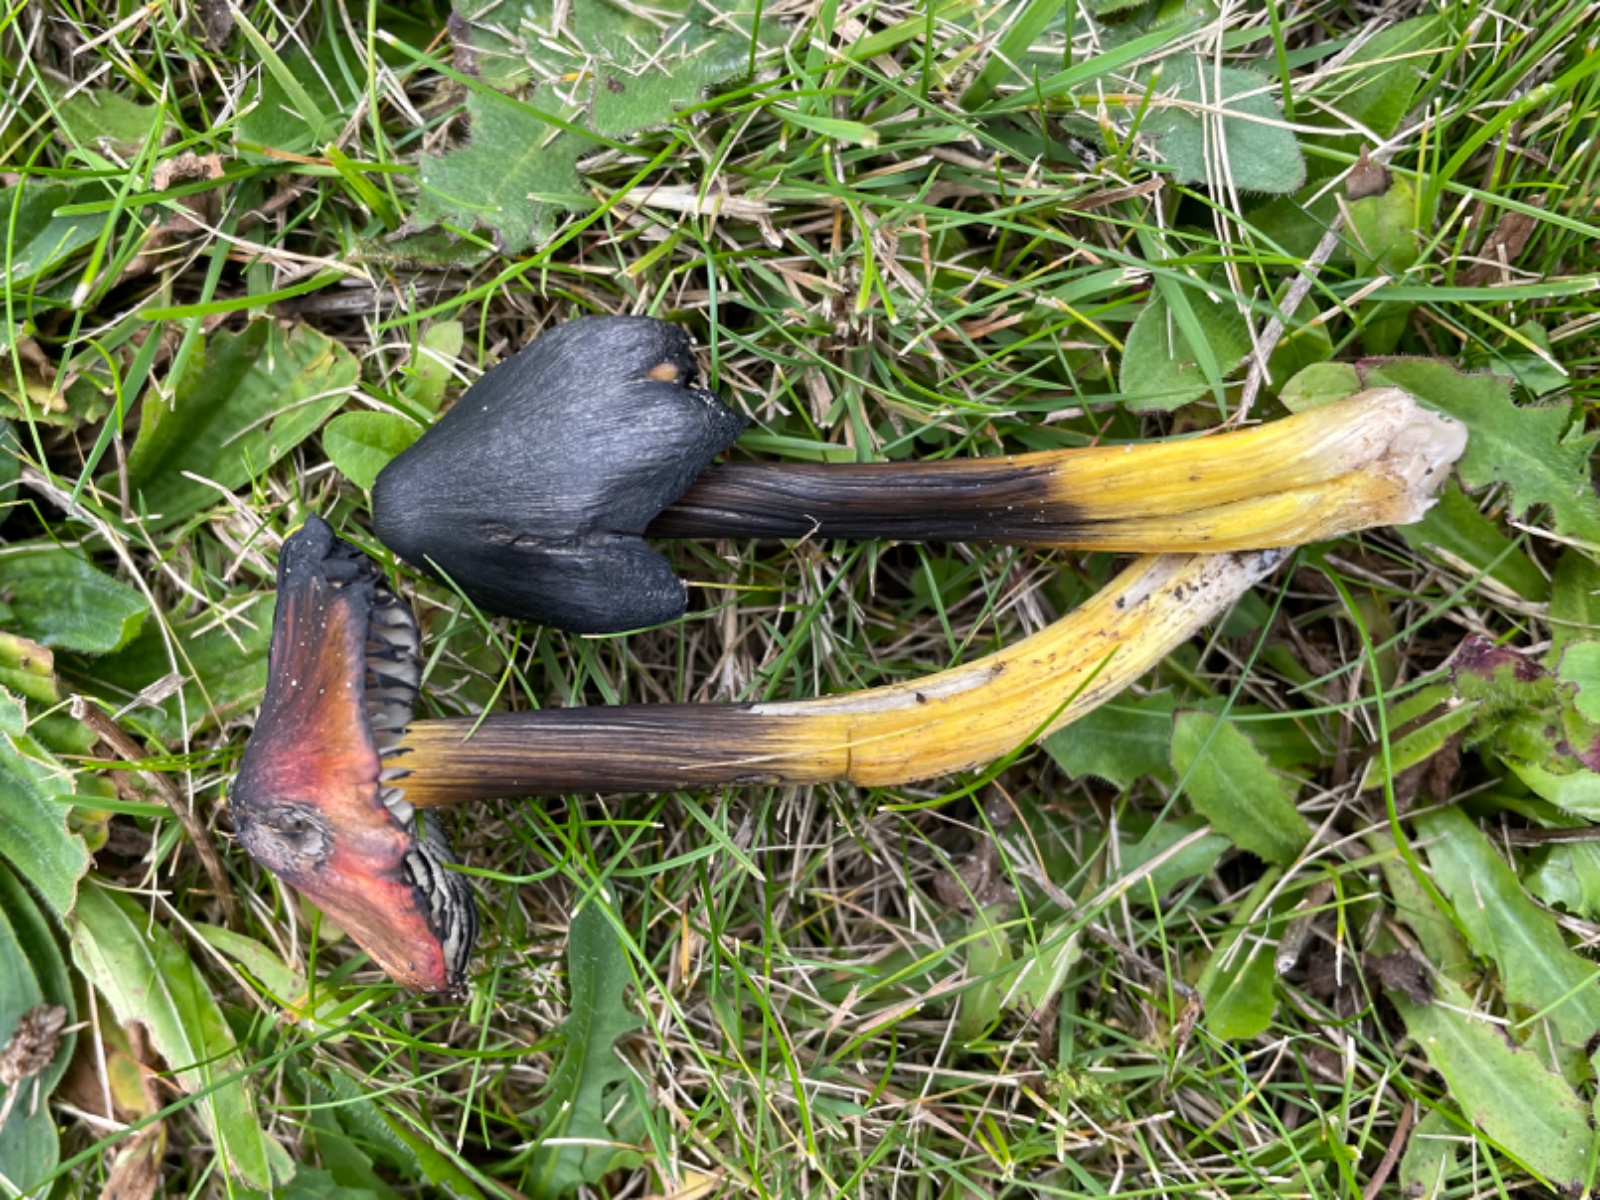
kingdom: Fungi
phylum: Basidiomycota
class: Agaricomycetes
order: Agaricales
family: Hygrophoraceae
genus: Hygrocybe
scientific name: Hygrocybe conica
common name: kegle-vokshat
